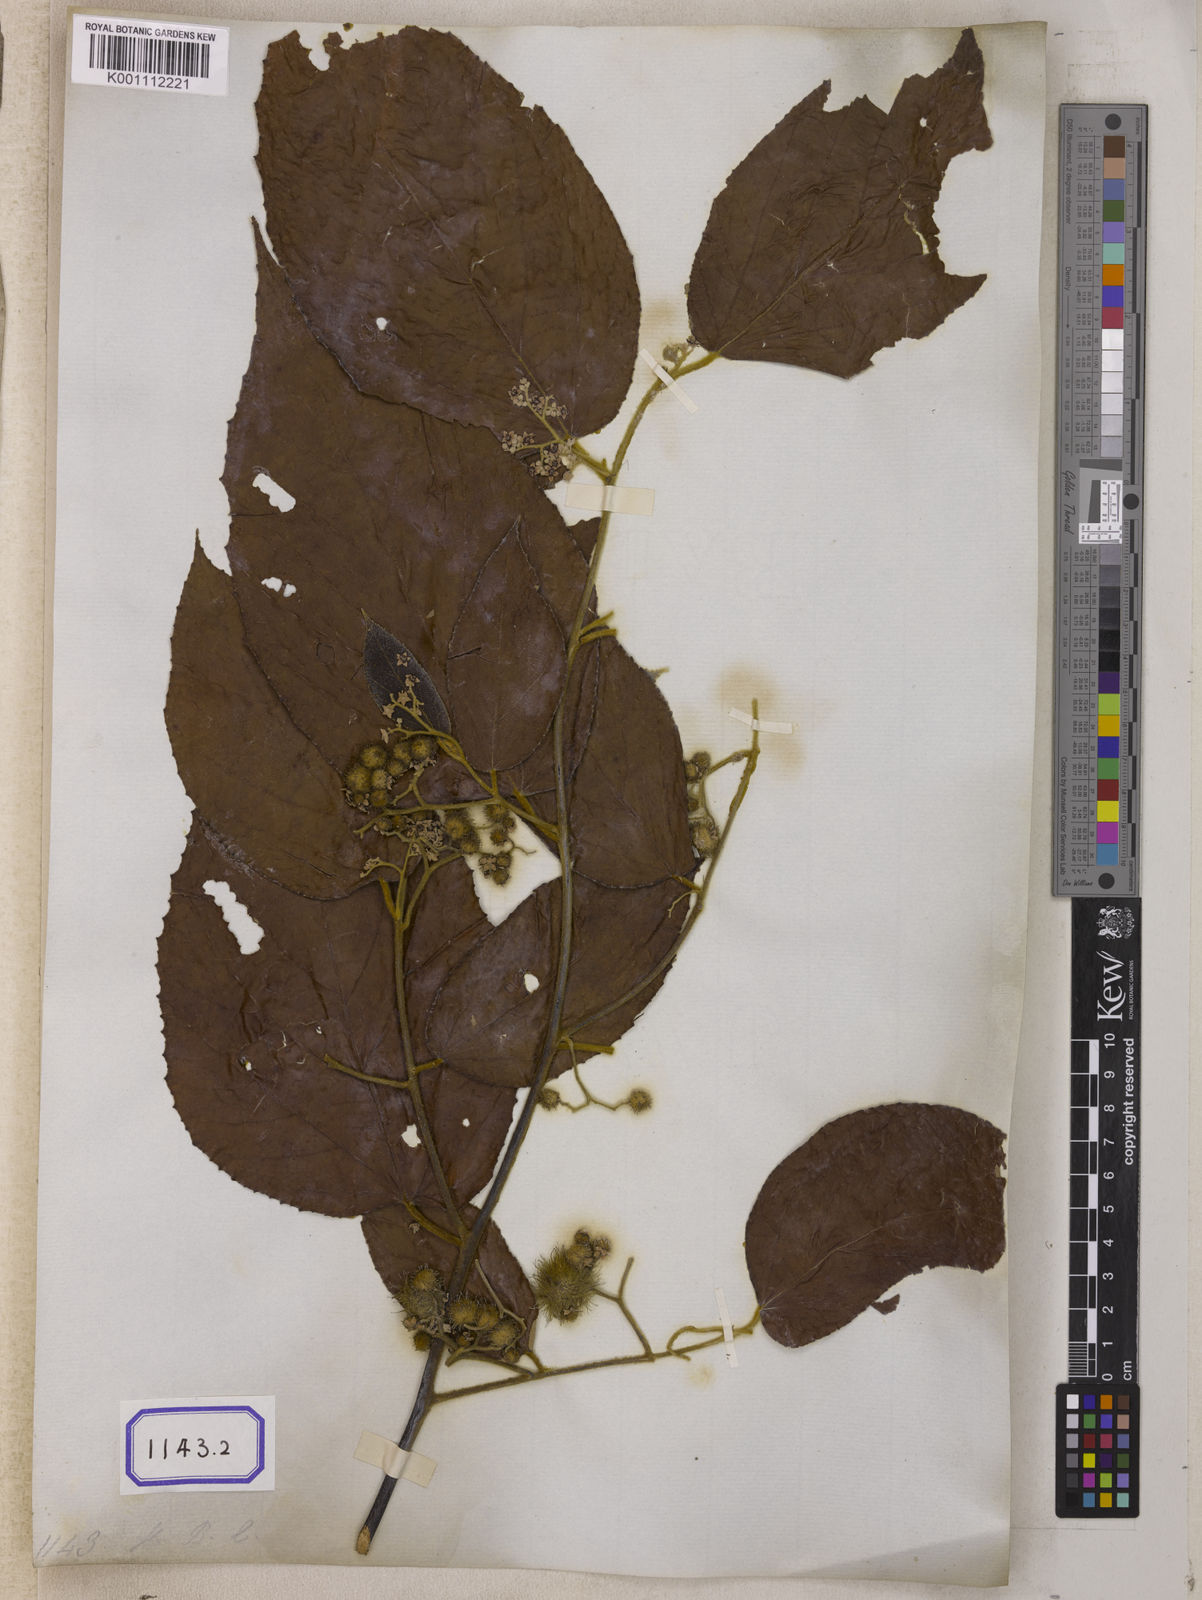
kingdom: Plantae
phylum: Tracheophyta
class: Magnoliopsida
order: Malvales
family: Malvaceae
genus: Commersonia
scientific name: Commersonia bartramia
